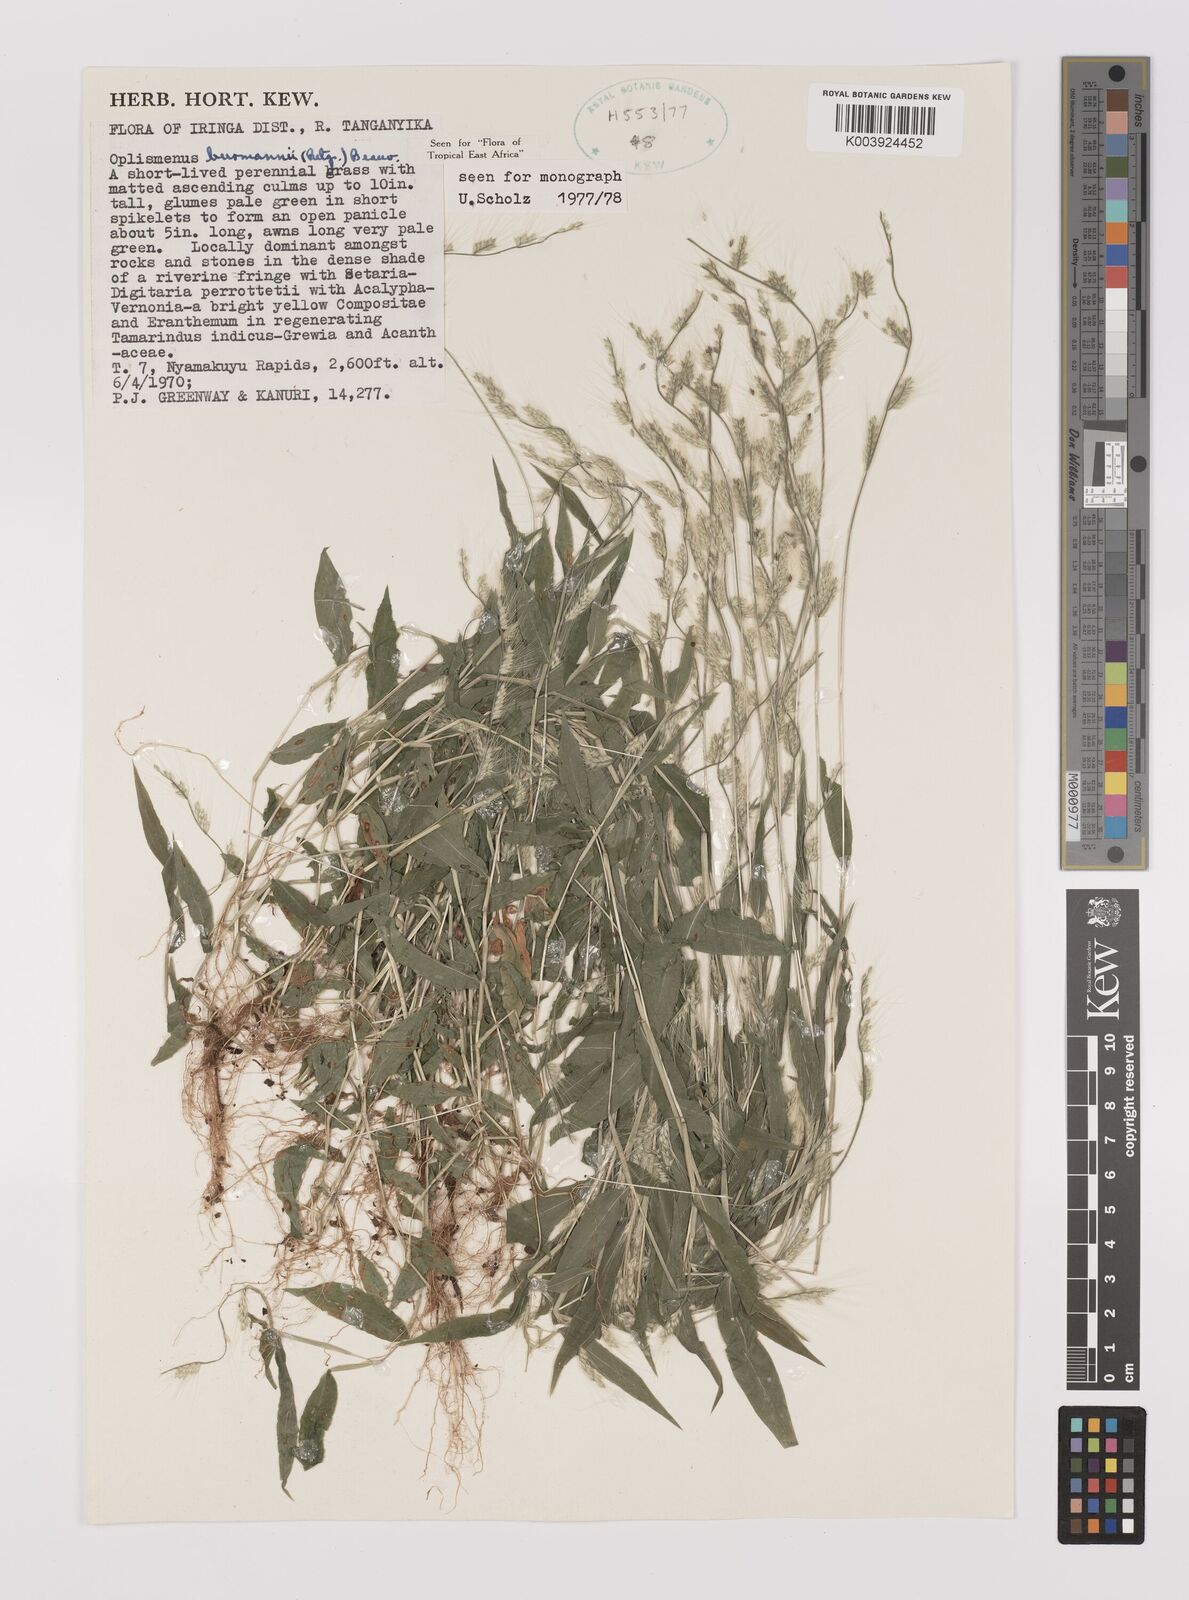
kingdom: Plantae
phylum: Tracheophyta
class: Liliopsida
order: Poales
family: Poaceae
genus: Oplismenus
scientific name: Oplismenus burmanni
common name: Burmann's basketgrass
